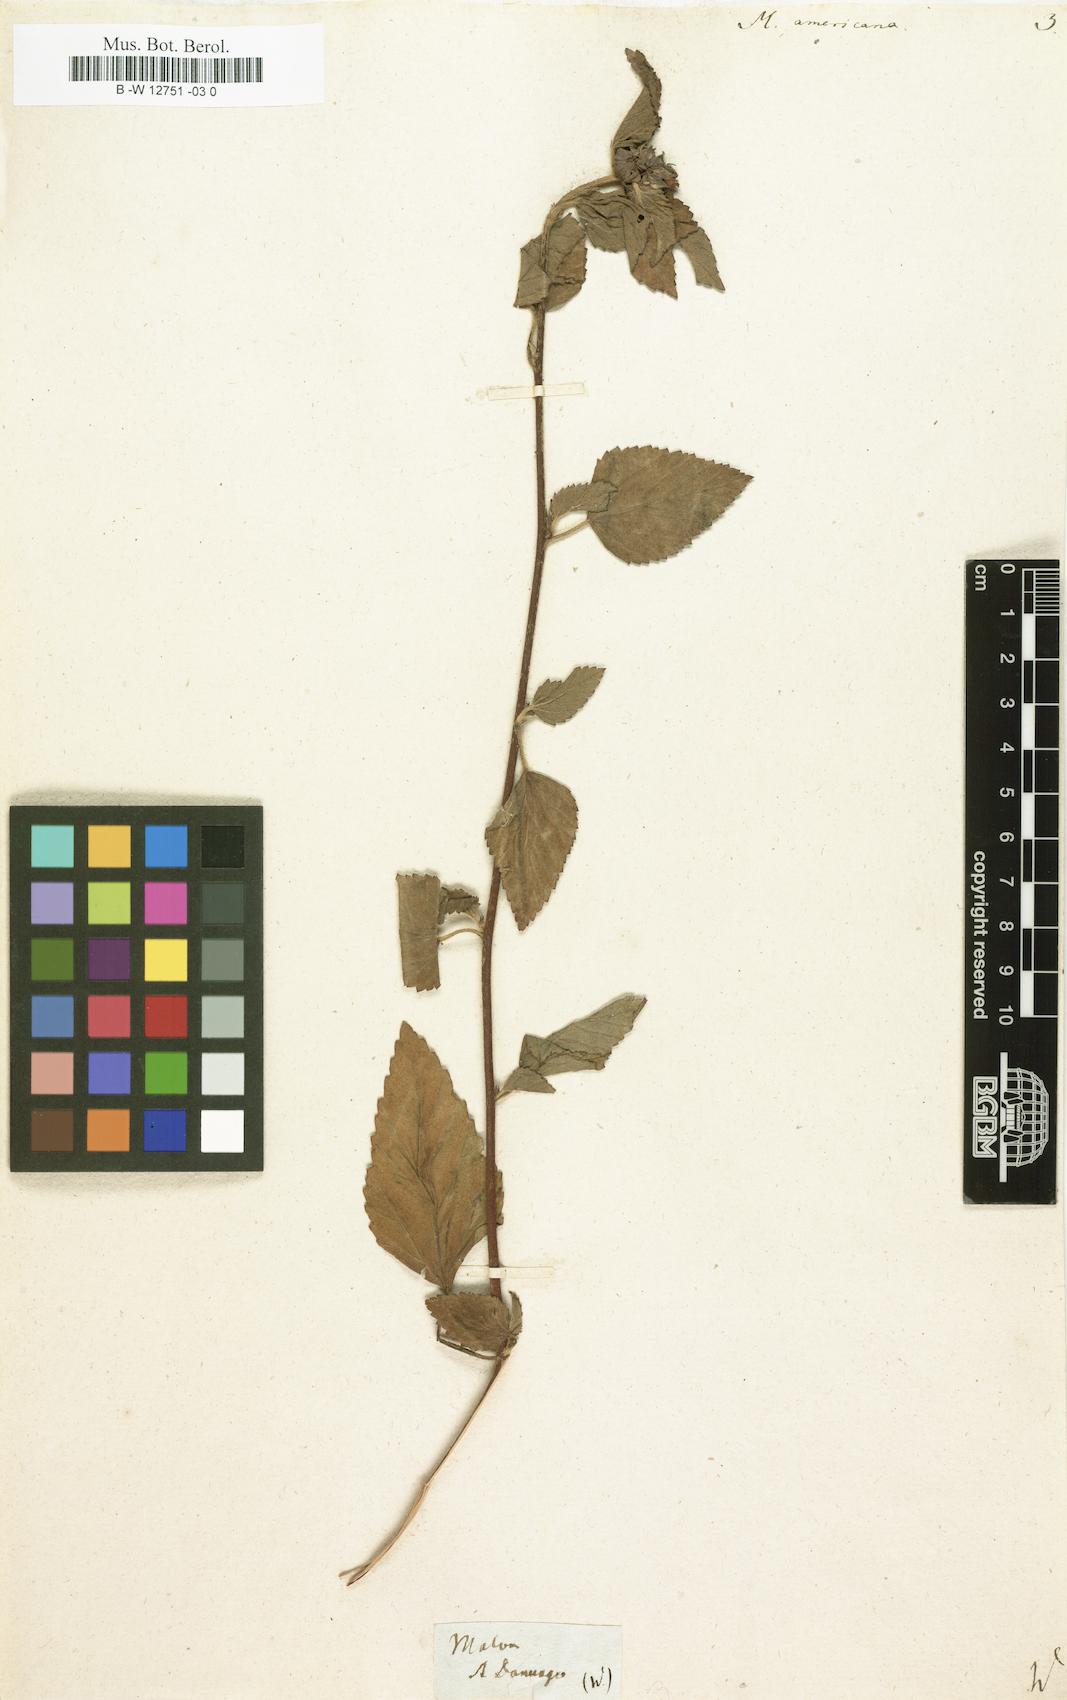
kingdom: Plantae
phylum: Tracheophyta
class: Magnoliopsida
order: Malvales
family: Malvaceae
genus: Malva
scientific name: Malva americana
